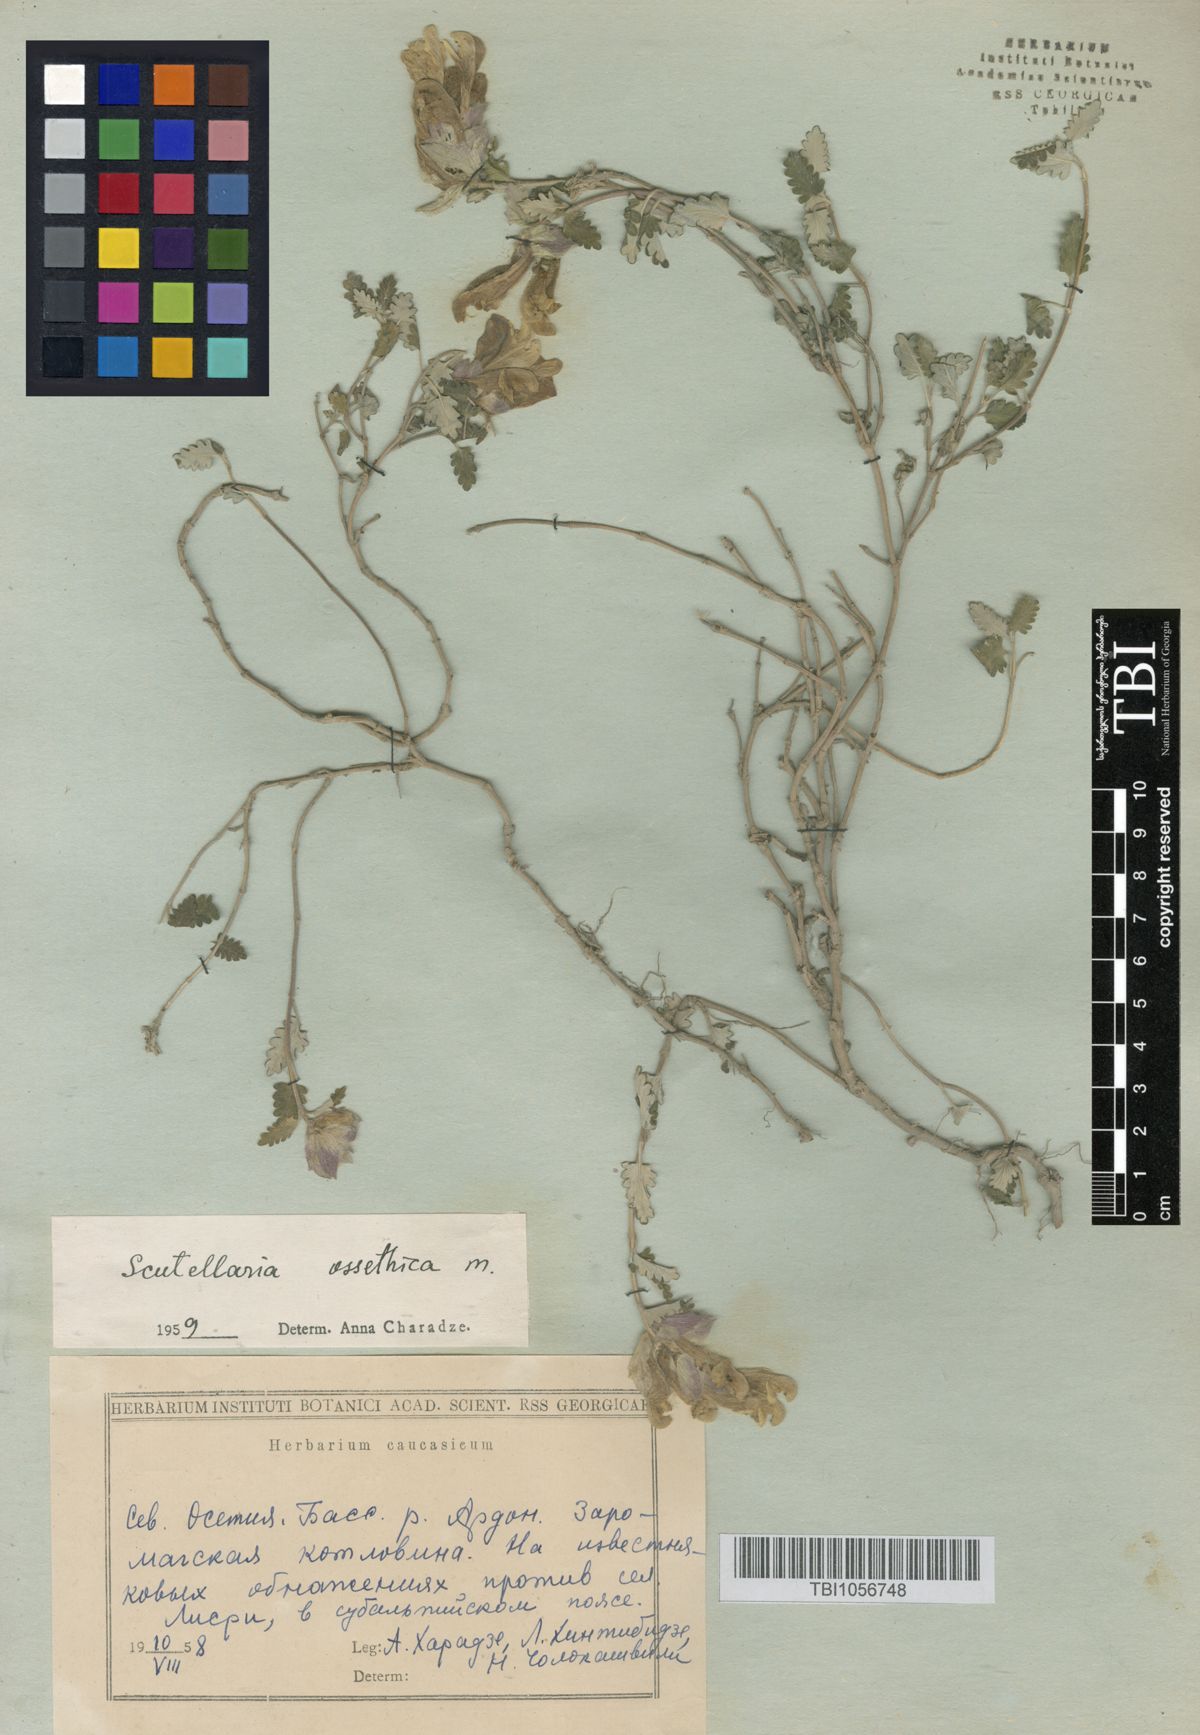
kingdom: Plantae
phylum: Tracheophyta
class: Magnoliopsida
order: Lamiales
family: Lamiaceae
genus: Scutellaria
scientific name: Scutellaria ossethica
